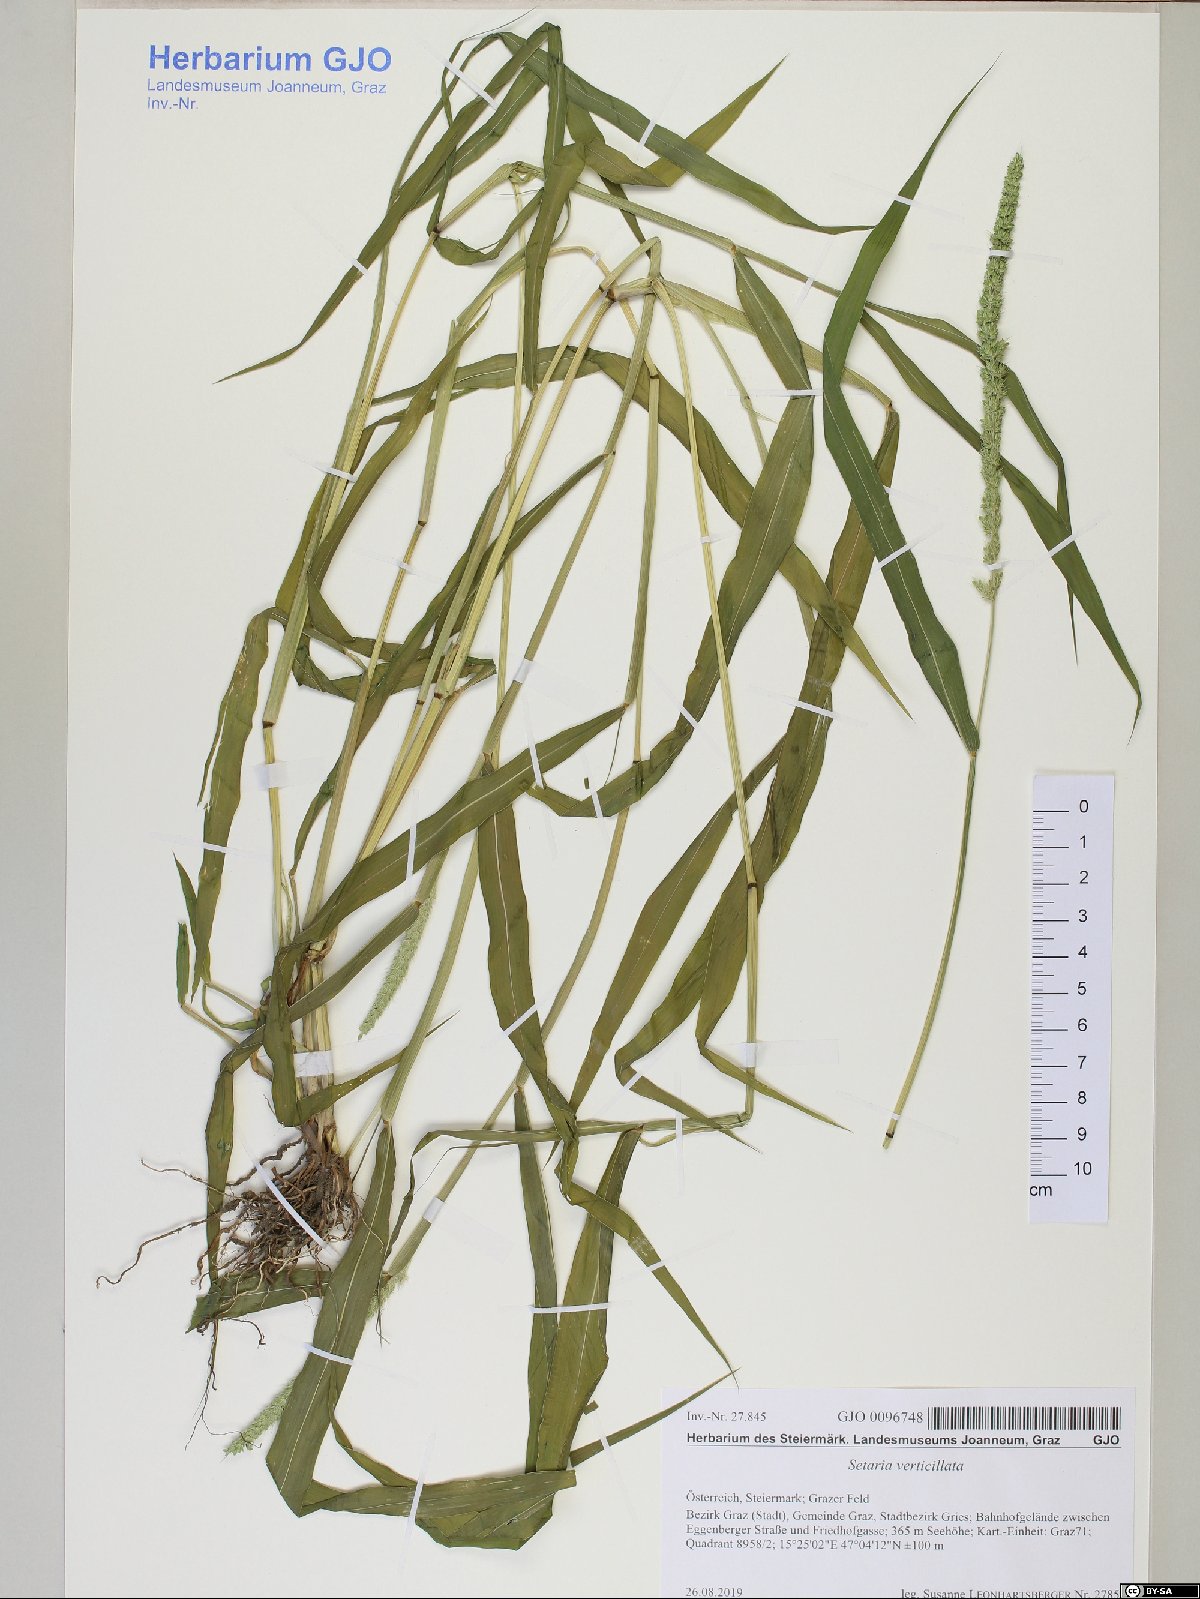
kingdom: Plantae
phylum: Tracheophyta
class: Liliopsida
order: Poales
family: Poaceae
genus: Setaria
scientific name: Setaria verticillata
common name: Hooked bristlegrass
